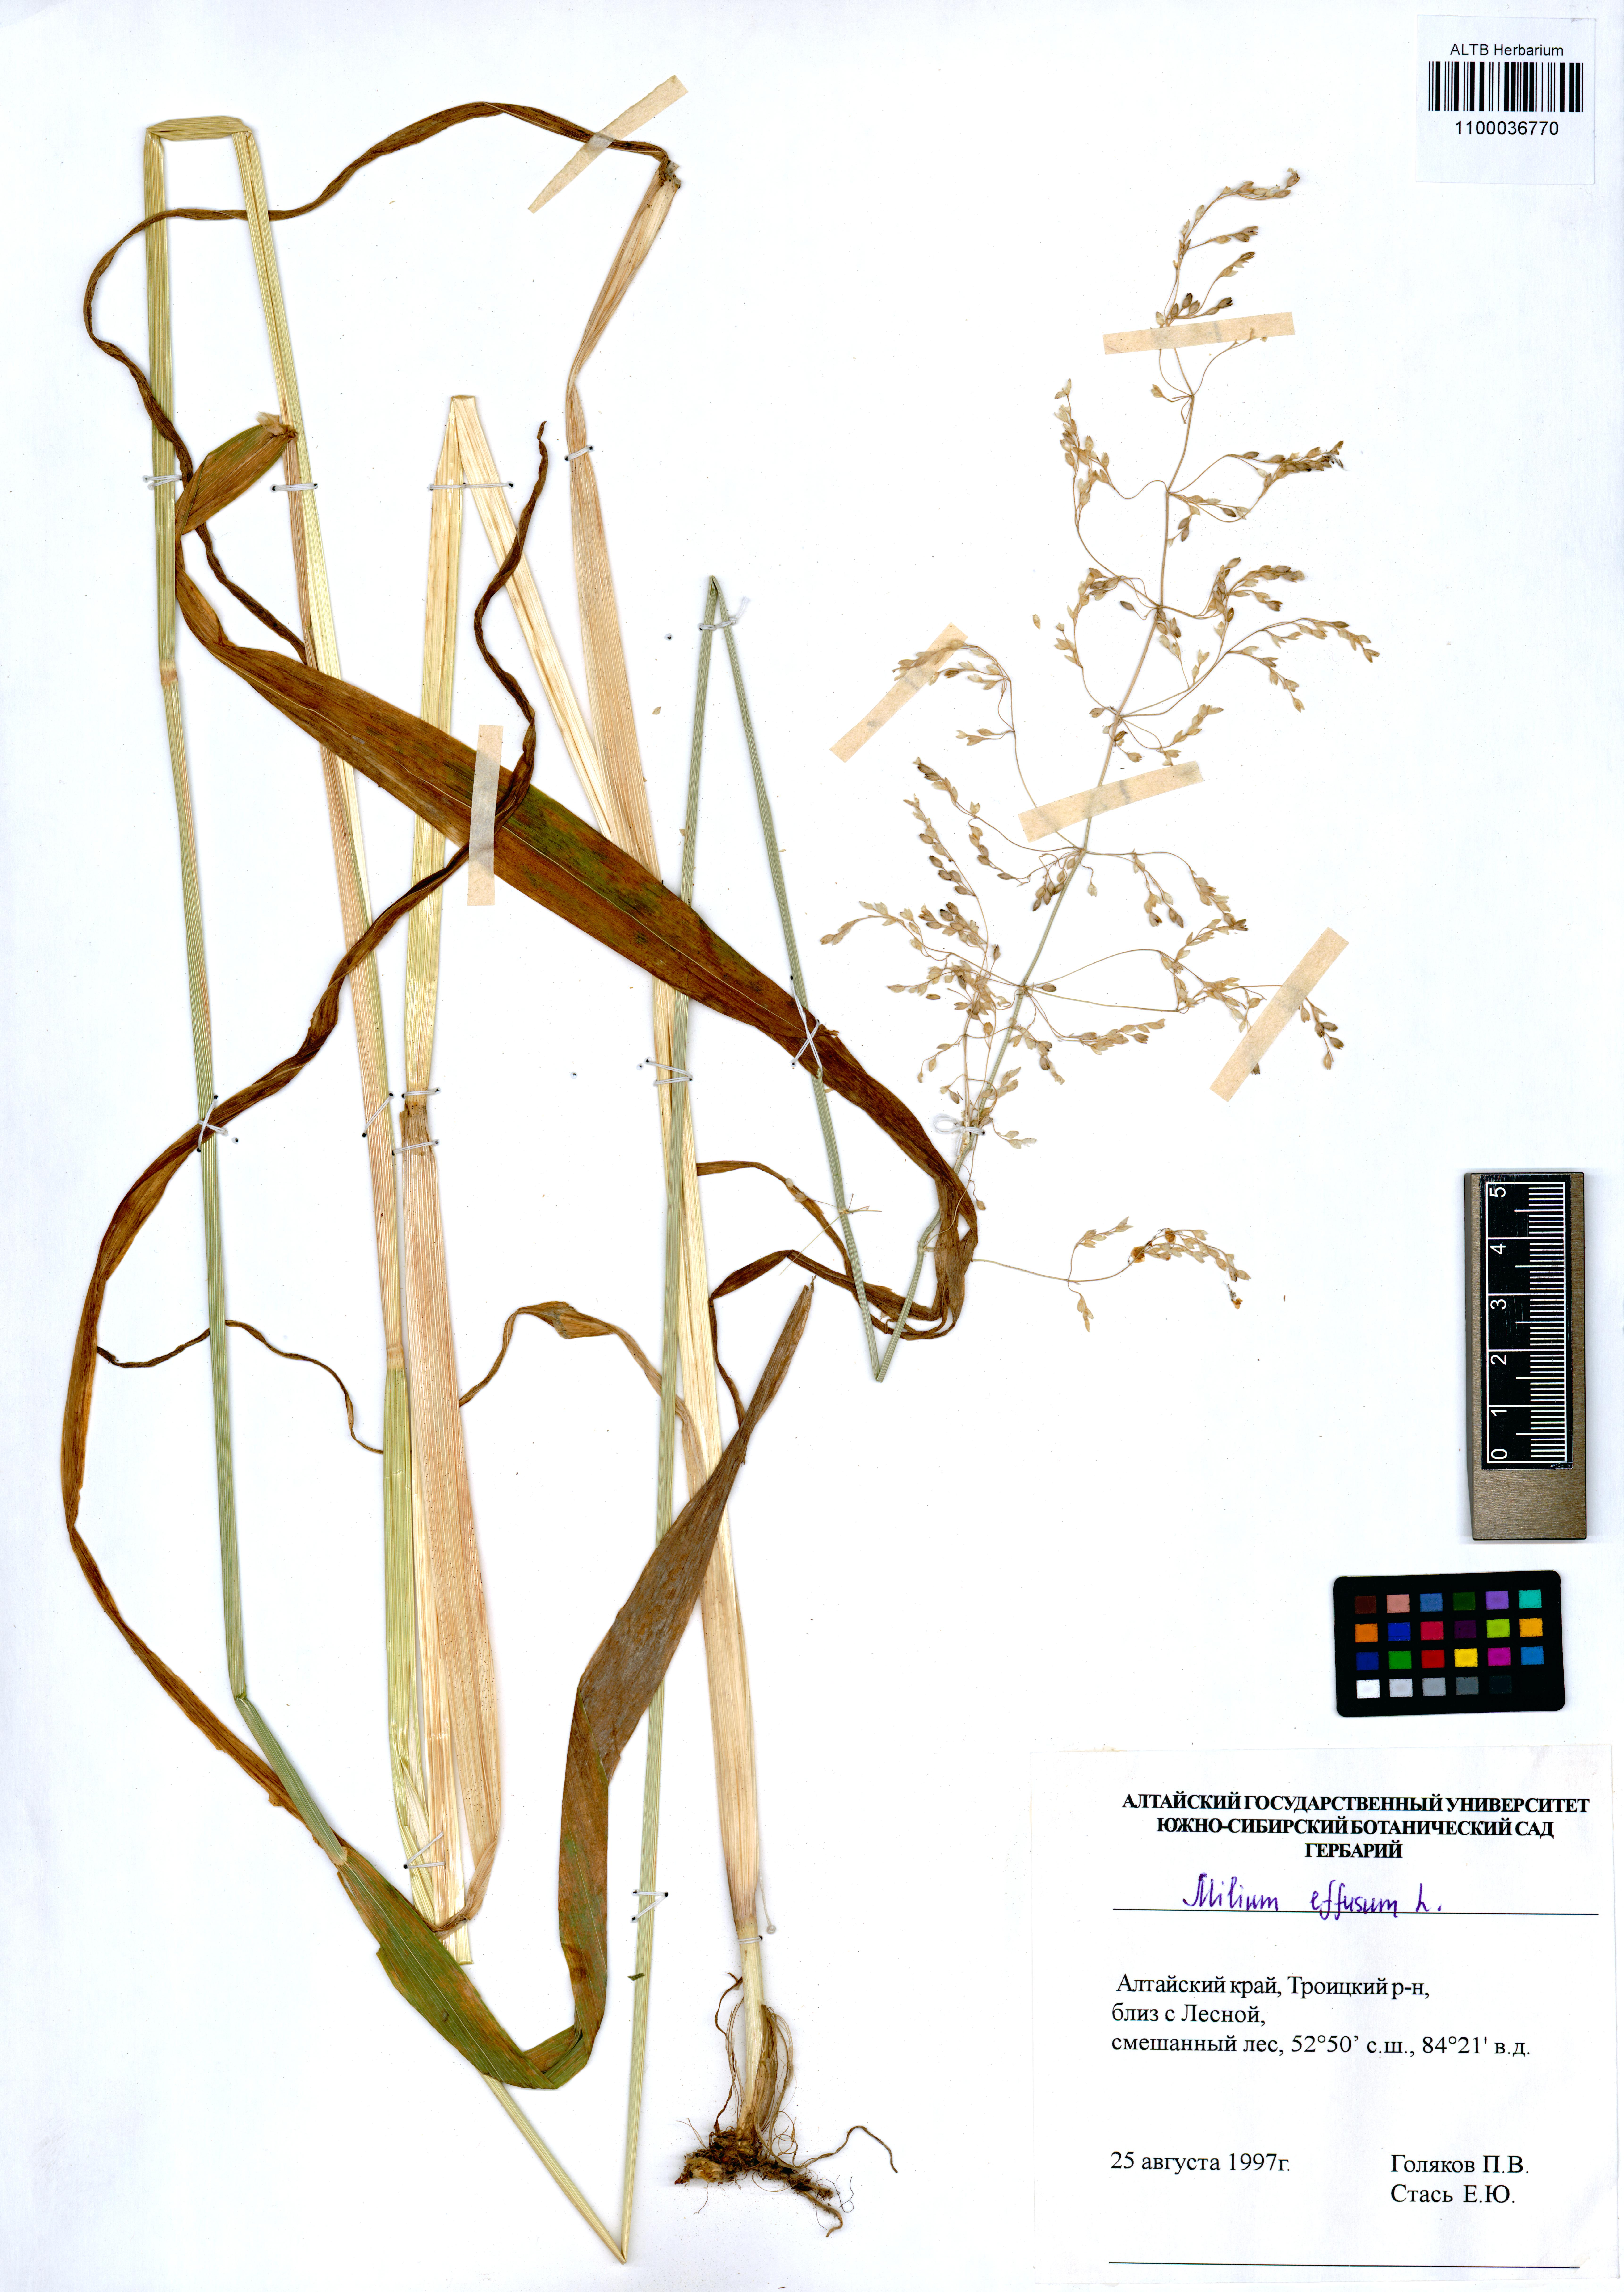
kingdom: Plantae
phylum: Tracheophyta
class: Liliopsida
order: Poales
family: Poaceae
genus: Milium
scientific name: Milium effusum
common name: Wood millet
